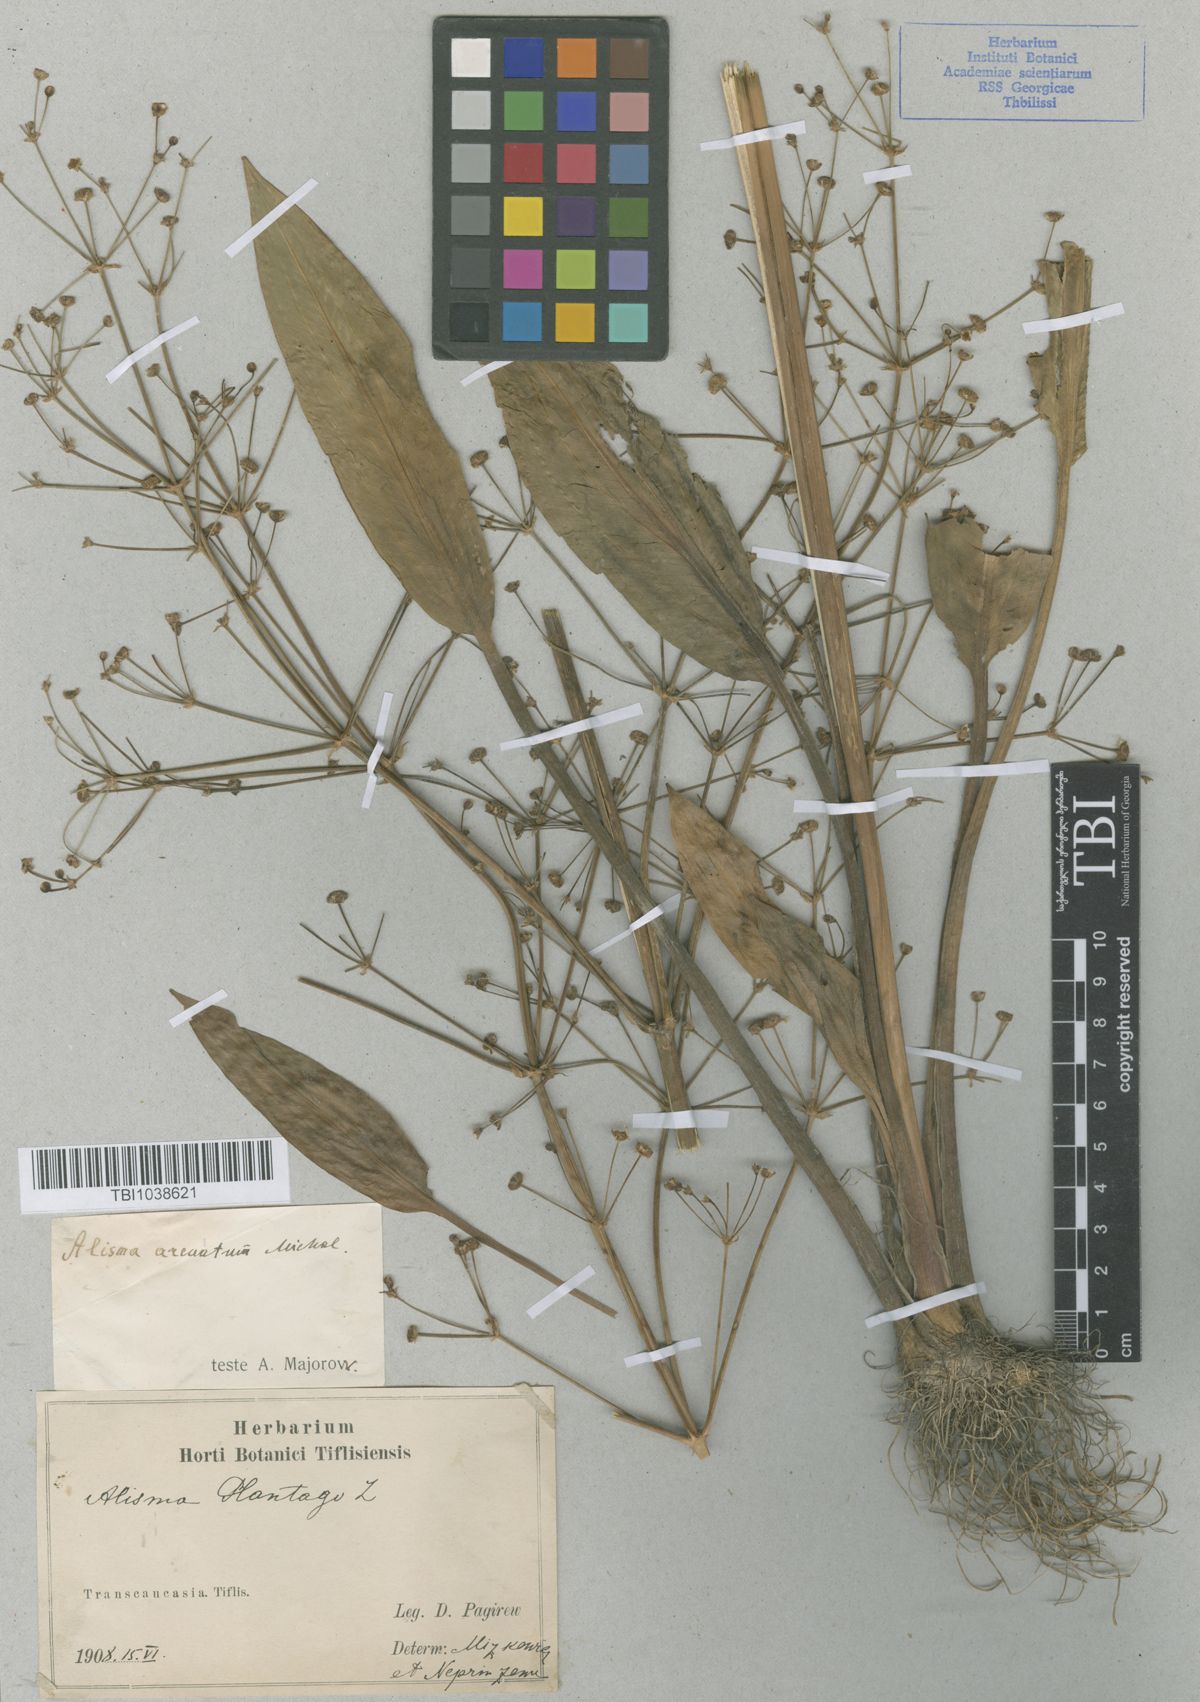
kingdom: Plantae
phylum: Tracheophyta
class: Liliopsida
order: Alismatales
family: Alismataceae
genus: Alisma
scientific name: Alisma plantago-aquatica
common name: Water-plantain
